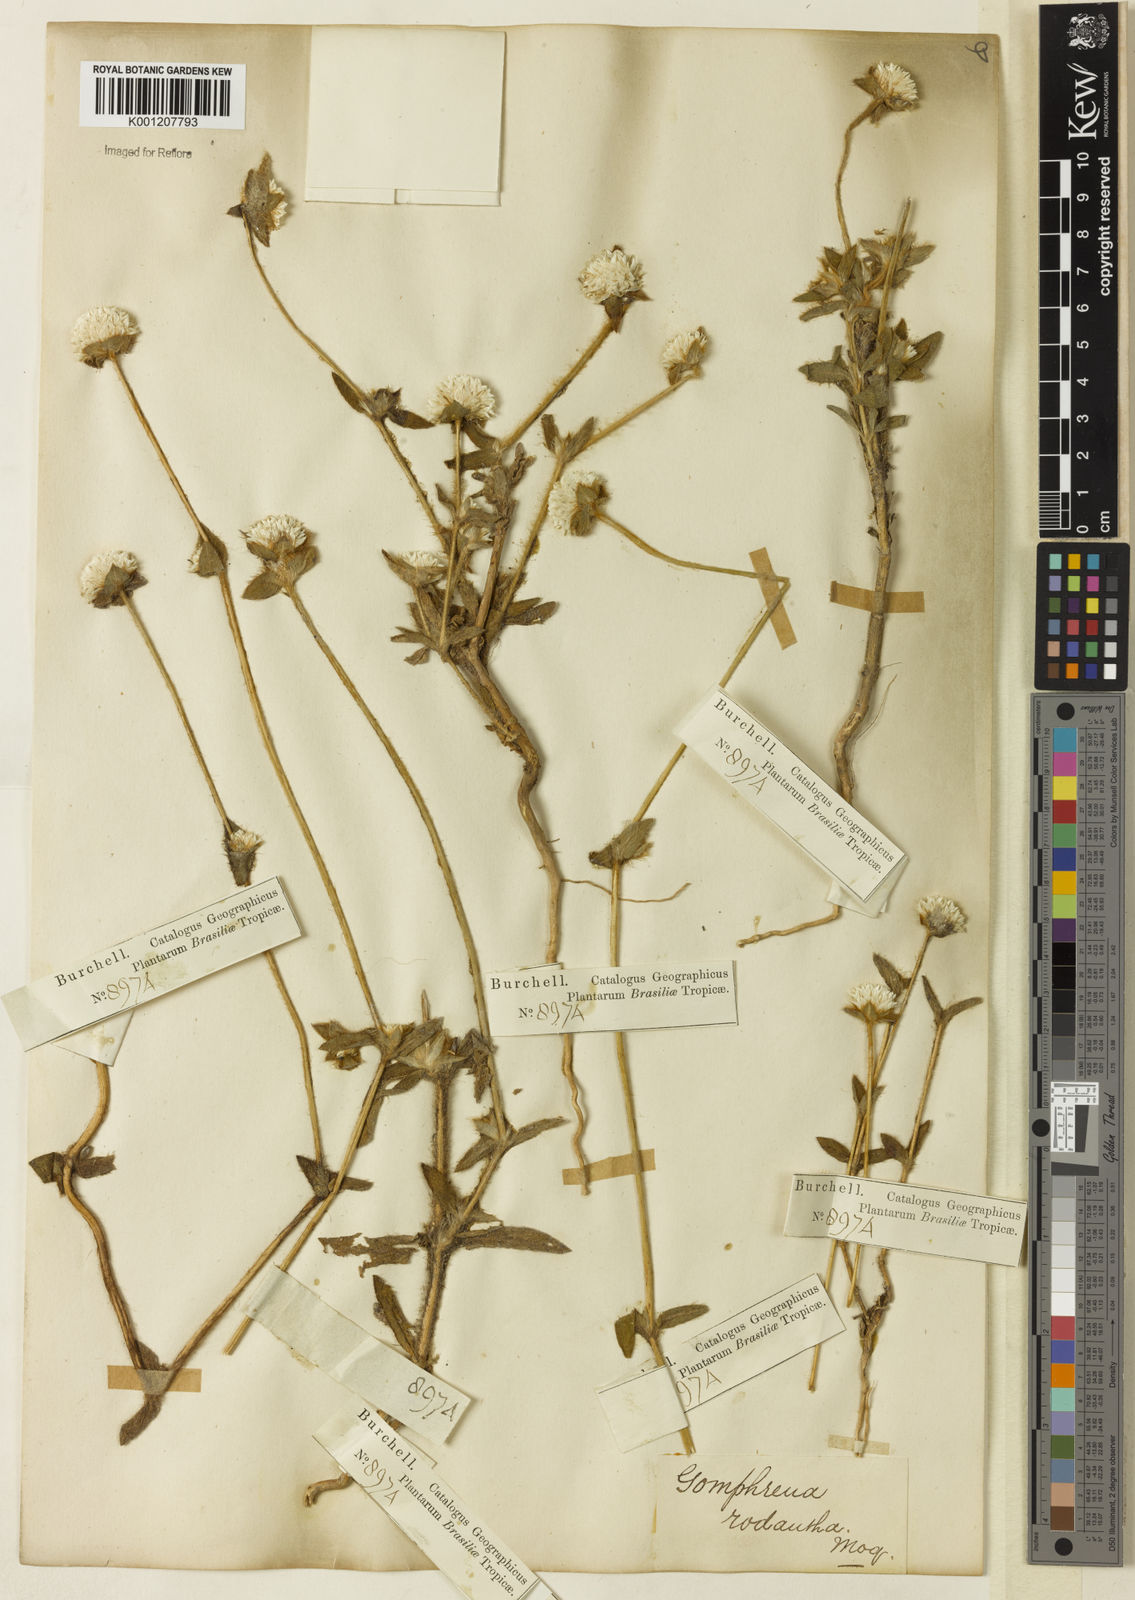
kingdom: Plantae
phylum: Tracheophyta
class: Magnoliopsida
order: Caryophyllales
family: Amaranthaceae
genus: Gomphrena
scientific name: Gomphrena desertorum
